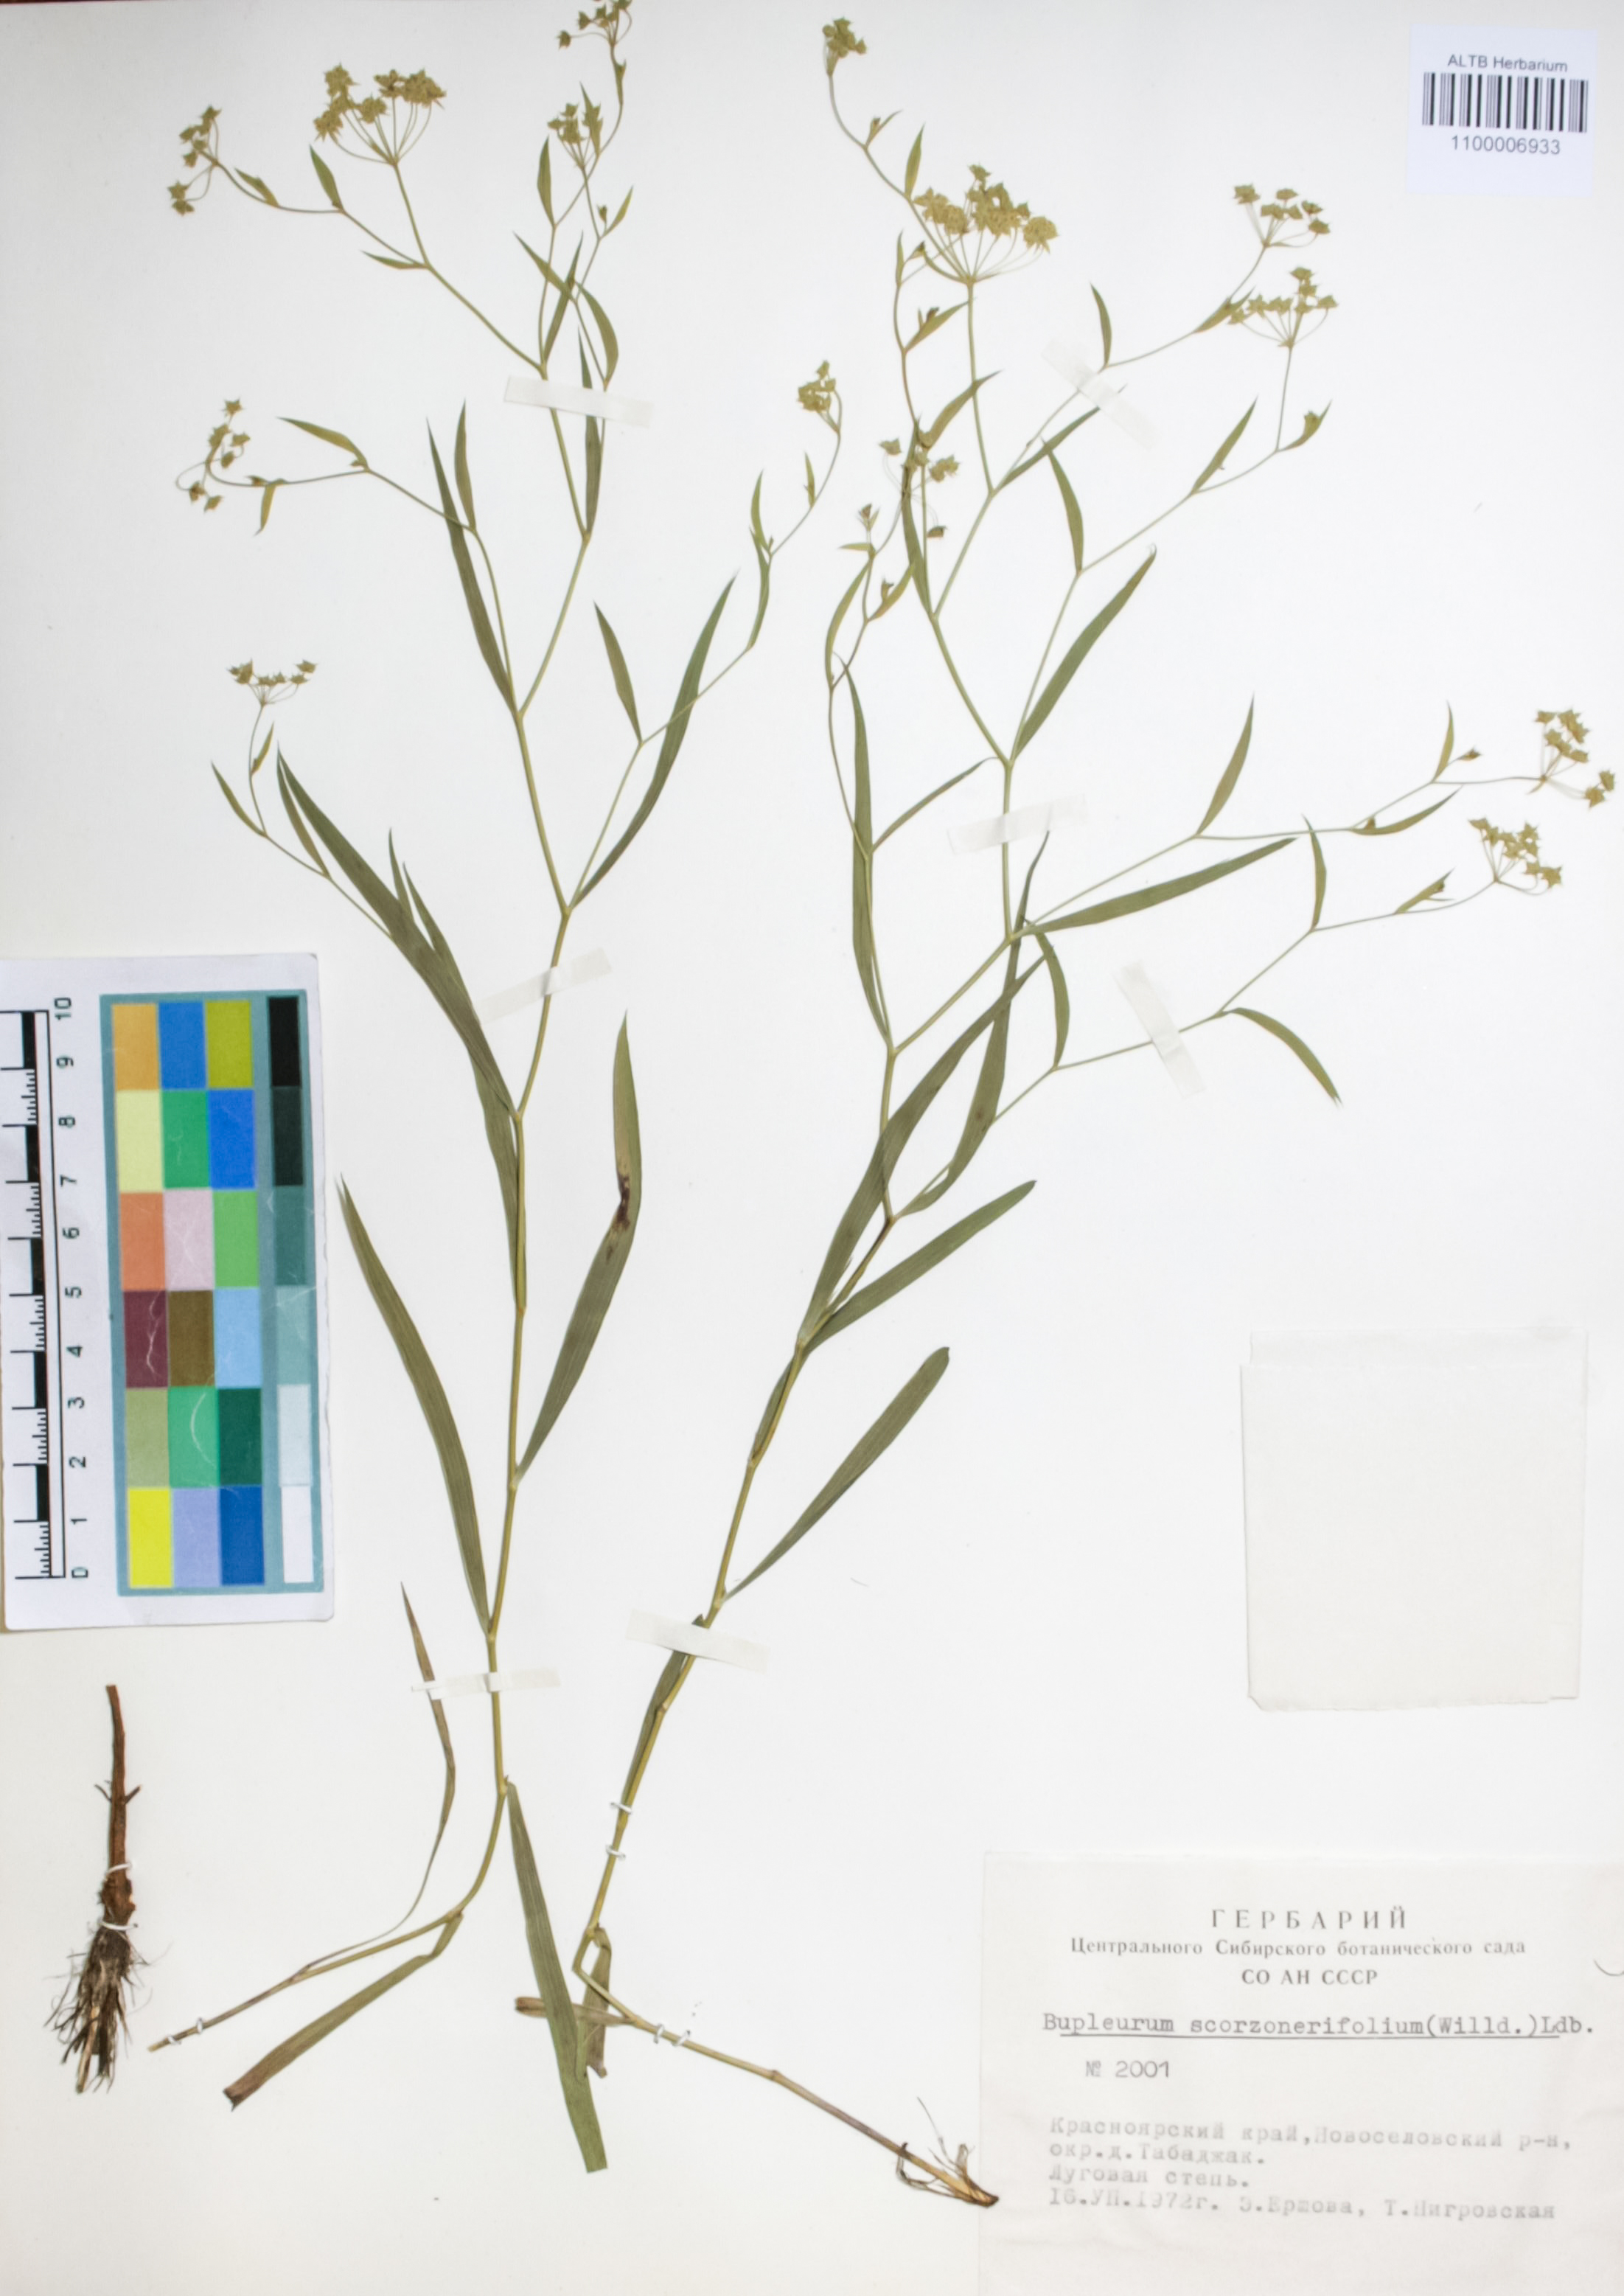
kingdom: Plantae
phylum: Tracheophyta
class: Magnoliopsida
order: Apiales
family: Apiaceae
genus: Bupleurum
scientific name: Bupleurum scorzonerifolium
